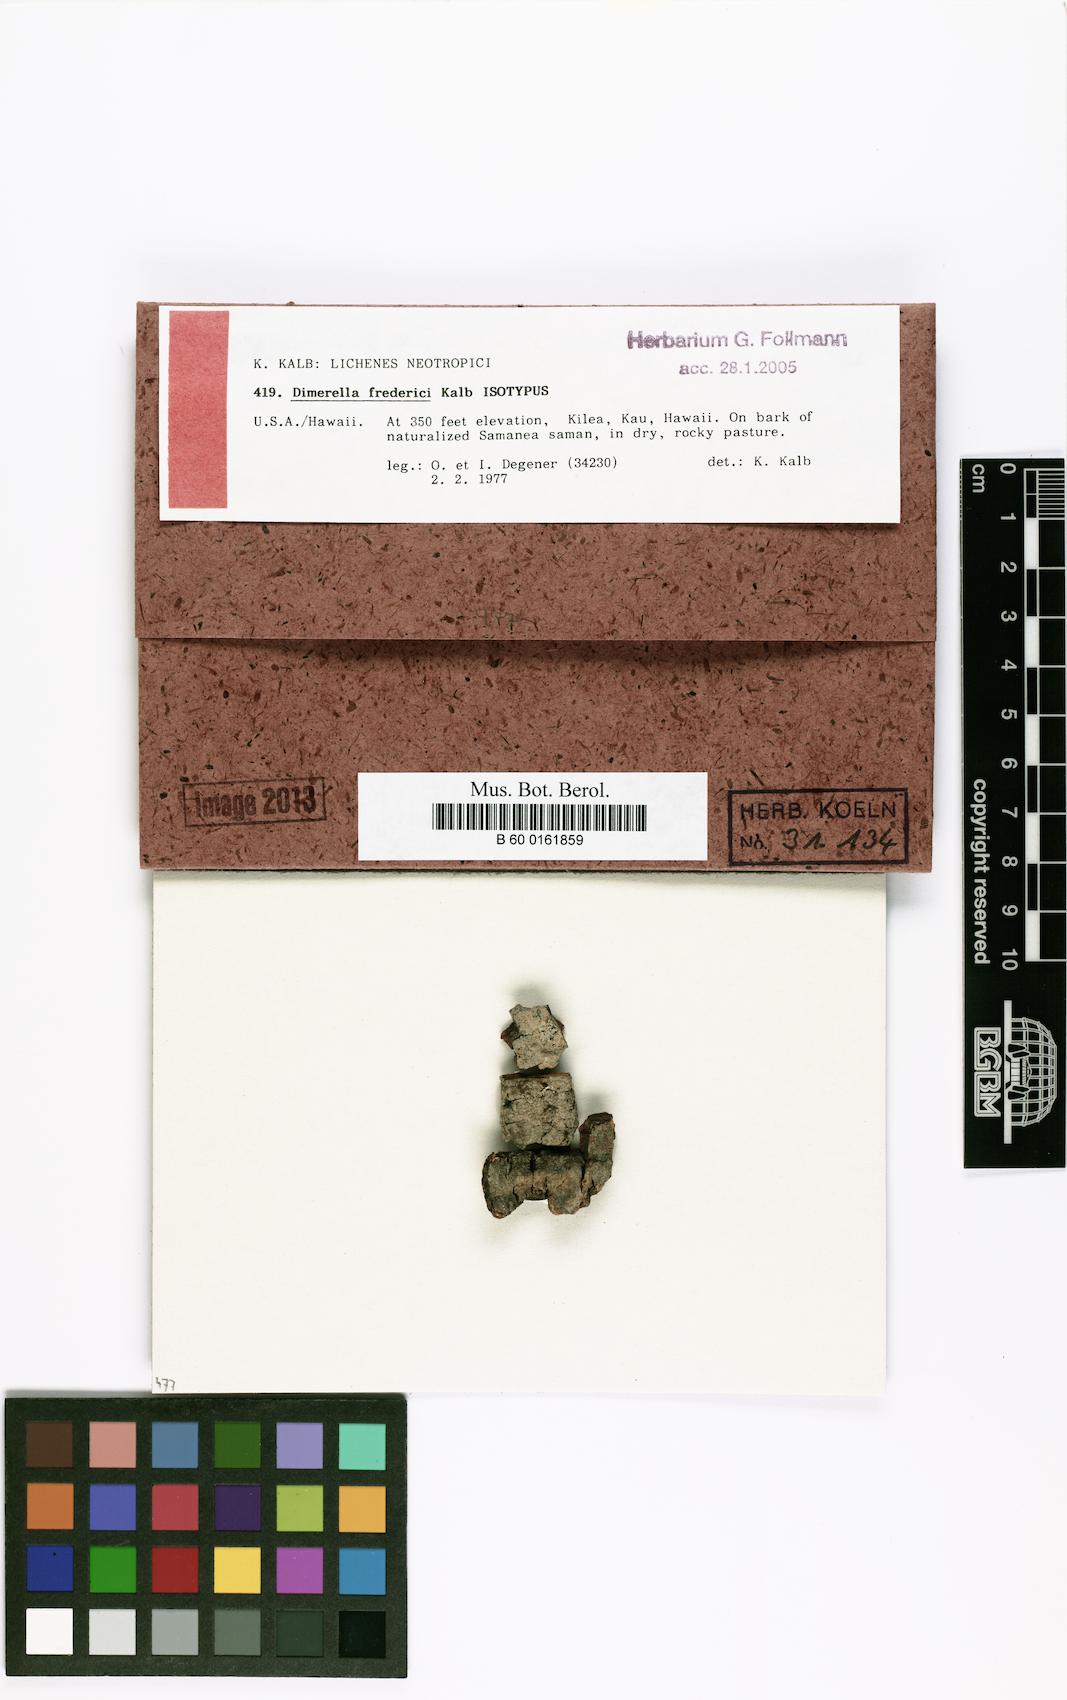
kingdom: Fungi
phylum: Ascomycota
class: Lecanoromycetes
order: Gyalectales
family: Gyalectaceae
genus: Dimerella
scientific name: Dimerella fredrici
